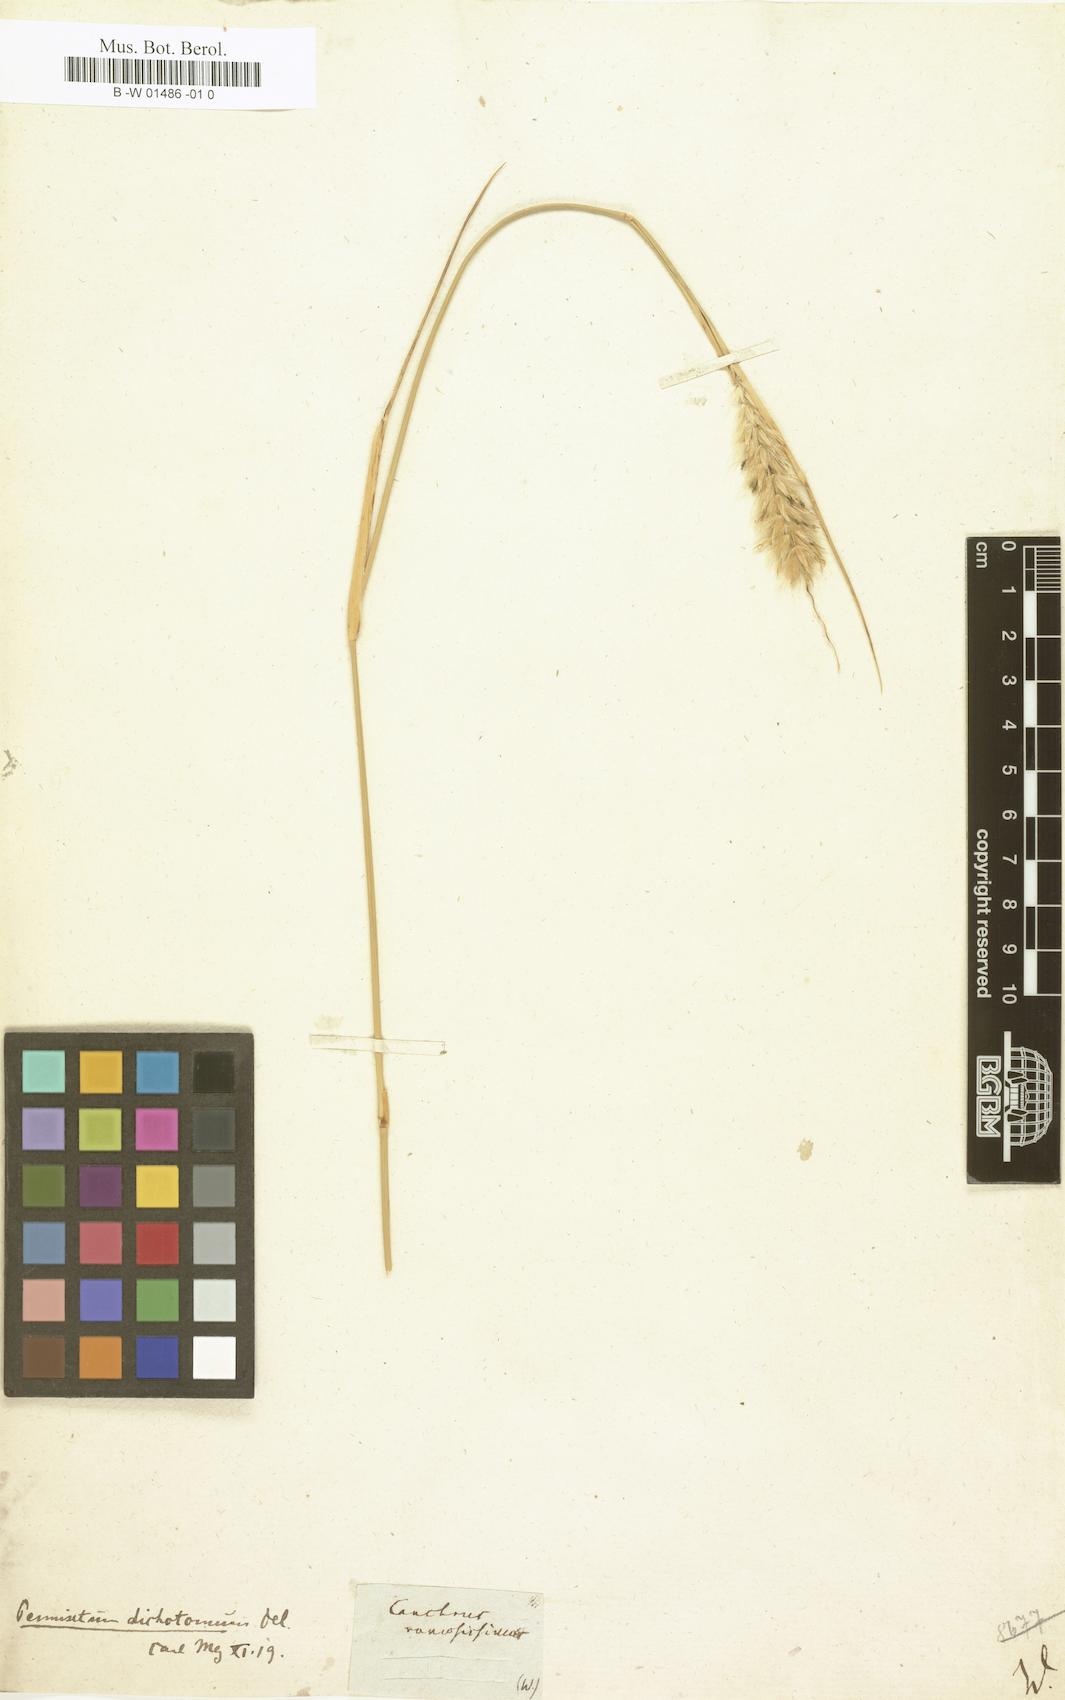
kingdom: Plantae
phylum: Tracheophyta
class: Liliopsida
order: Poales
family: Poaceae
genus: Cenchrus
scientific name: Cenchrus divisus
